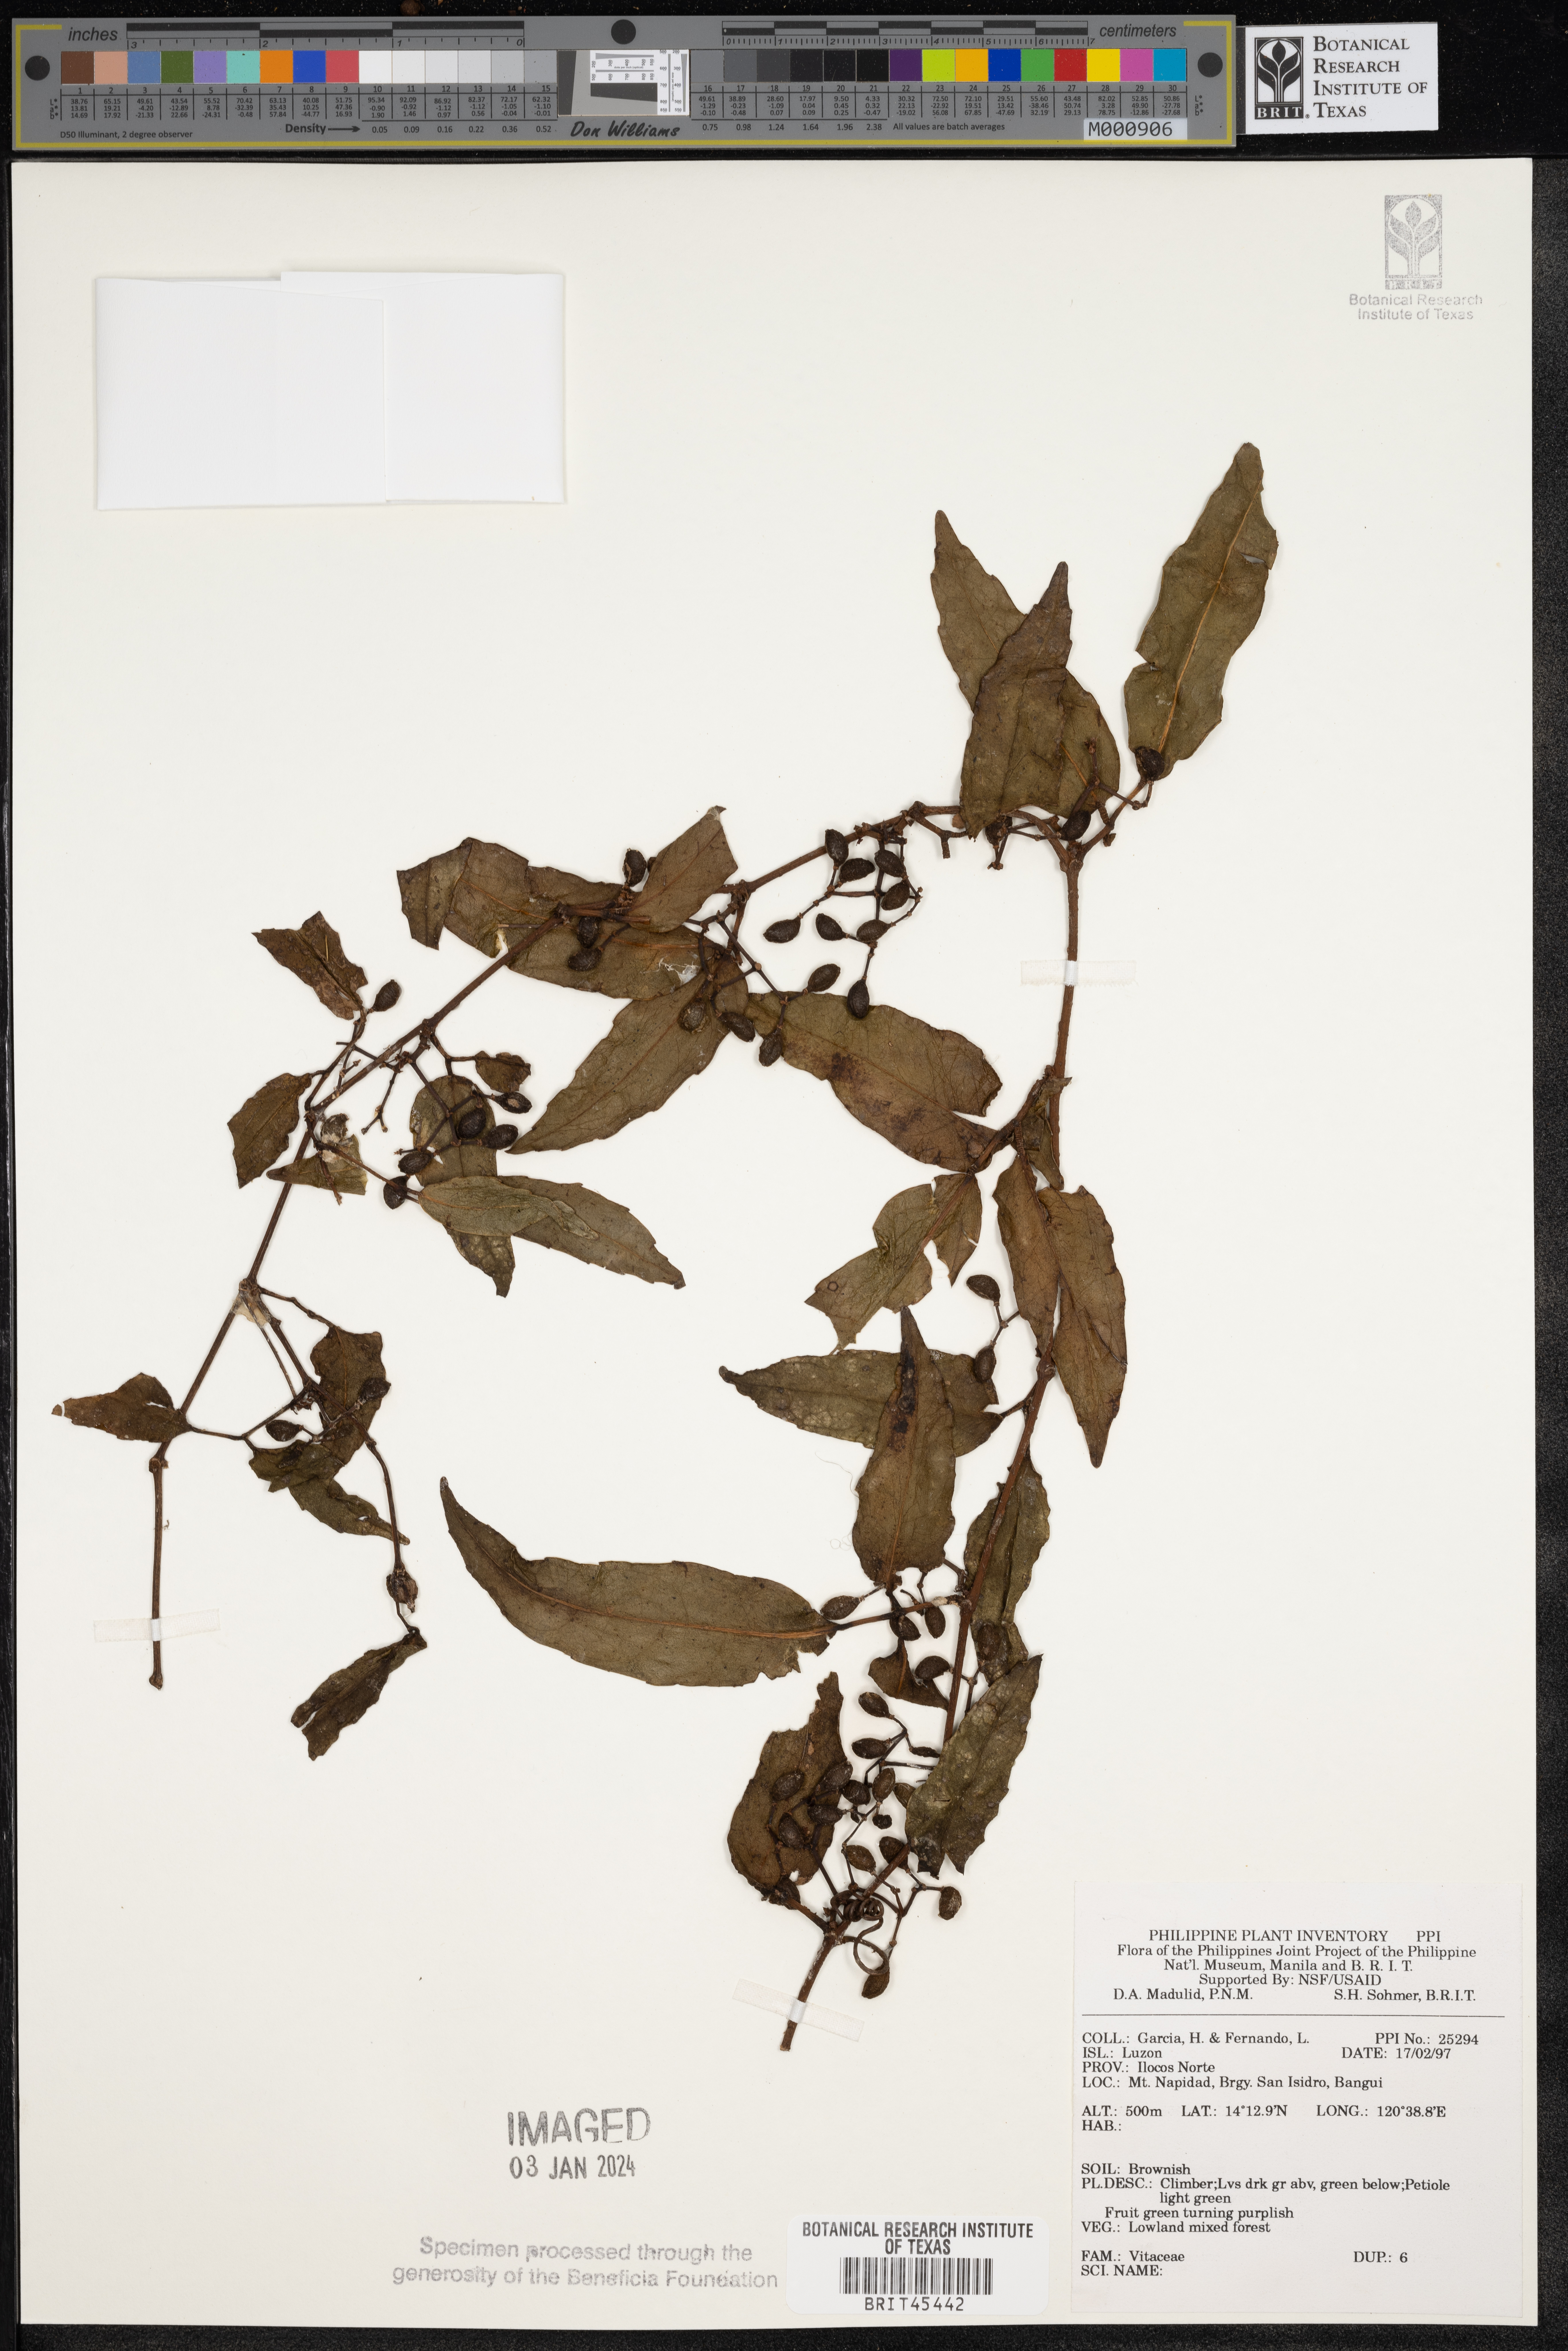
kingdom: Plantae
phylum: Tracheophyta
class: Magnoliopsida
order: Vitales
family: Vitaceae
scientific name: Vitaceae
